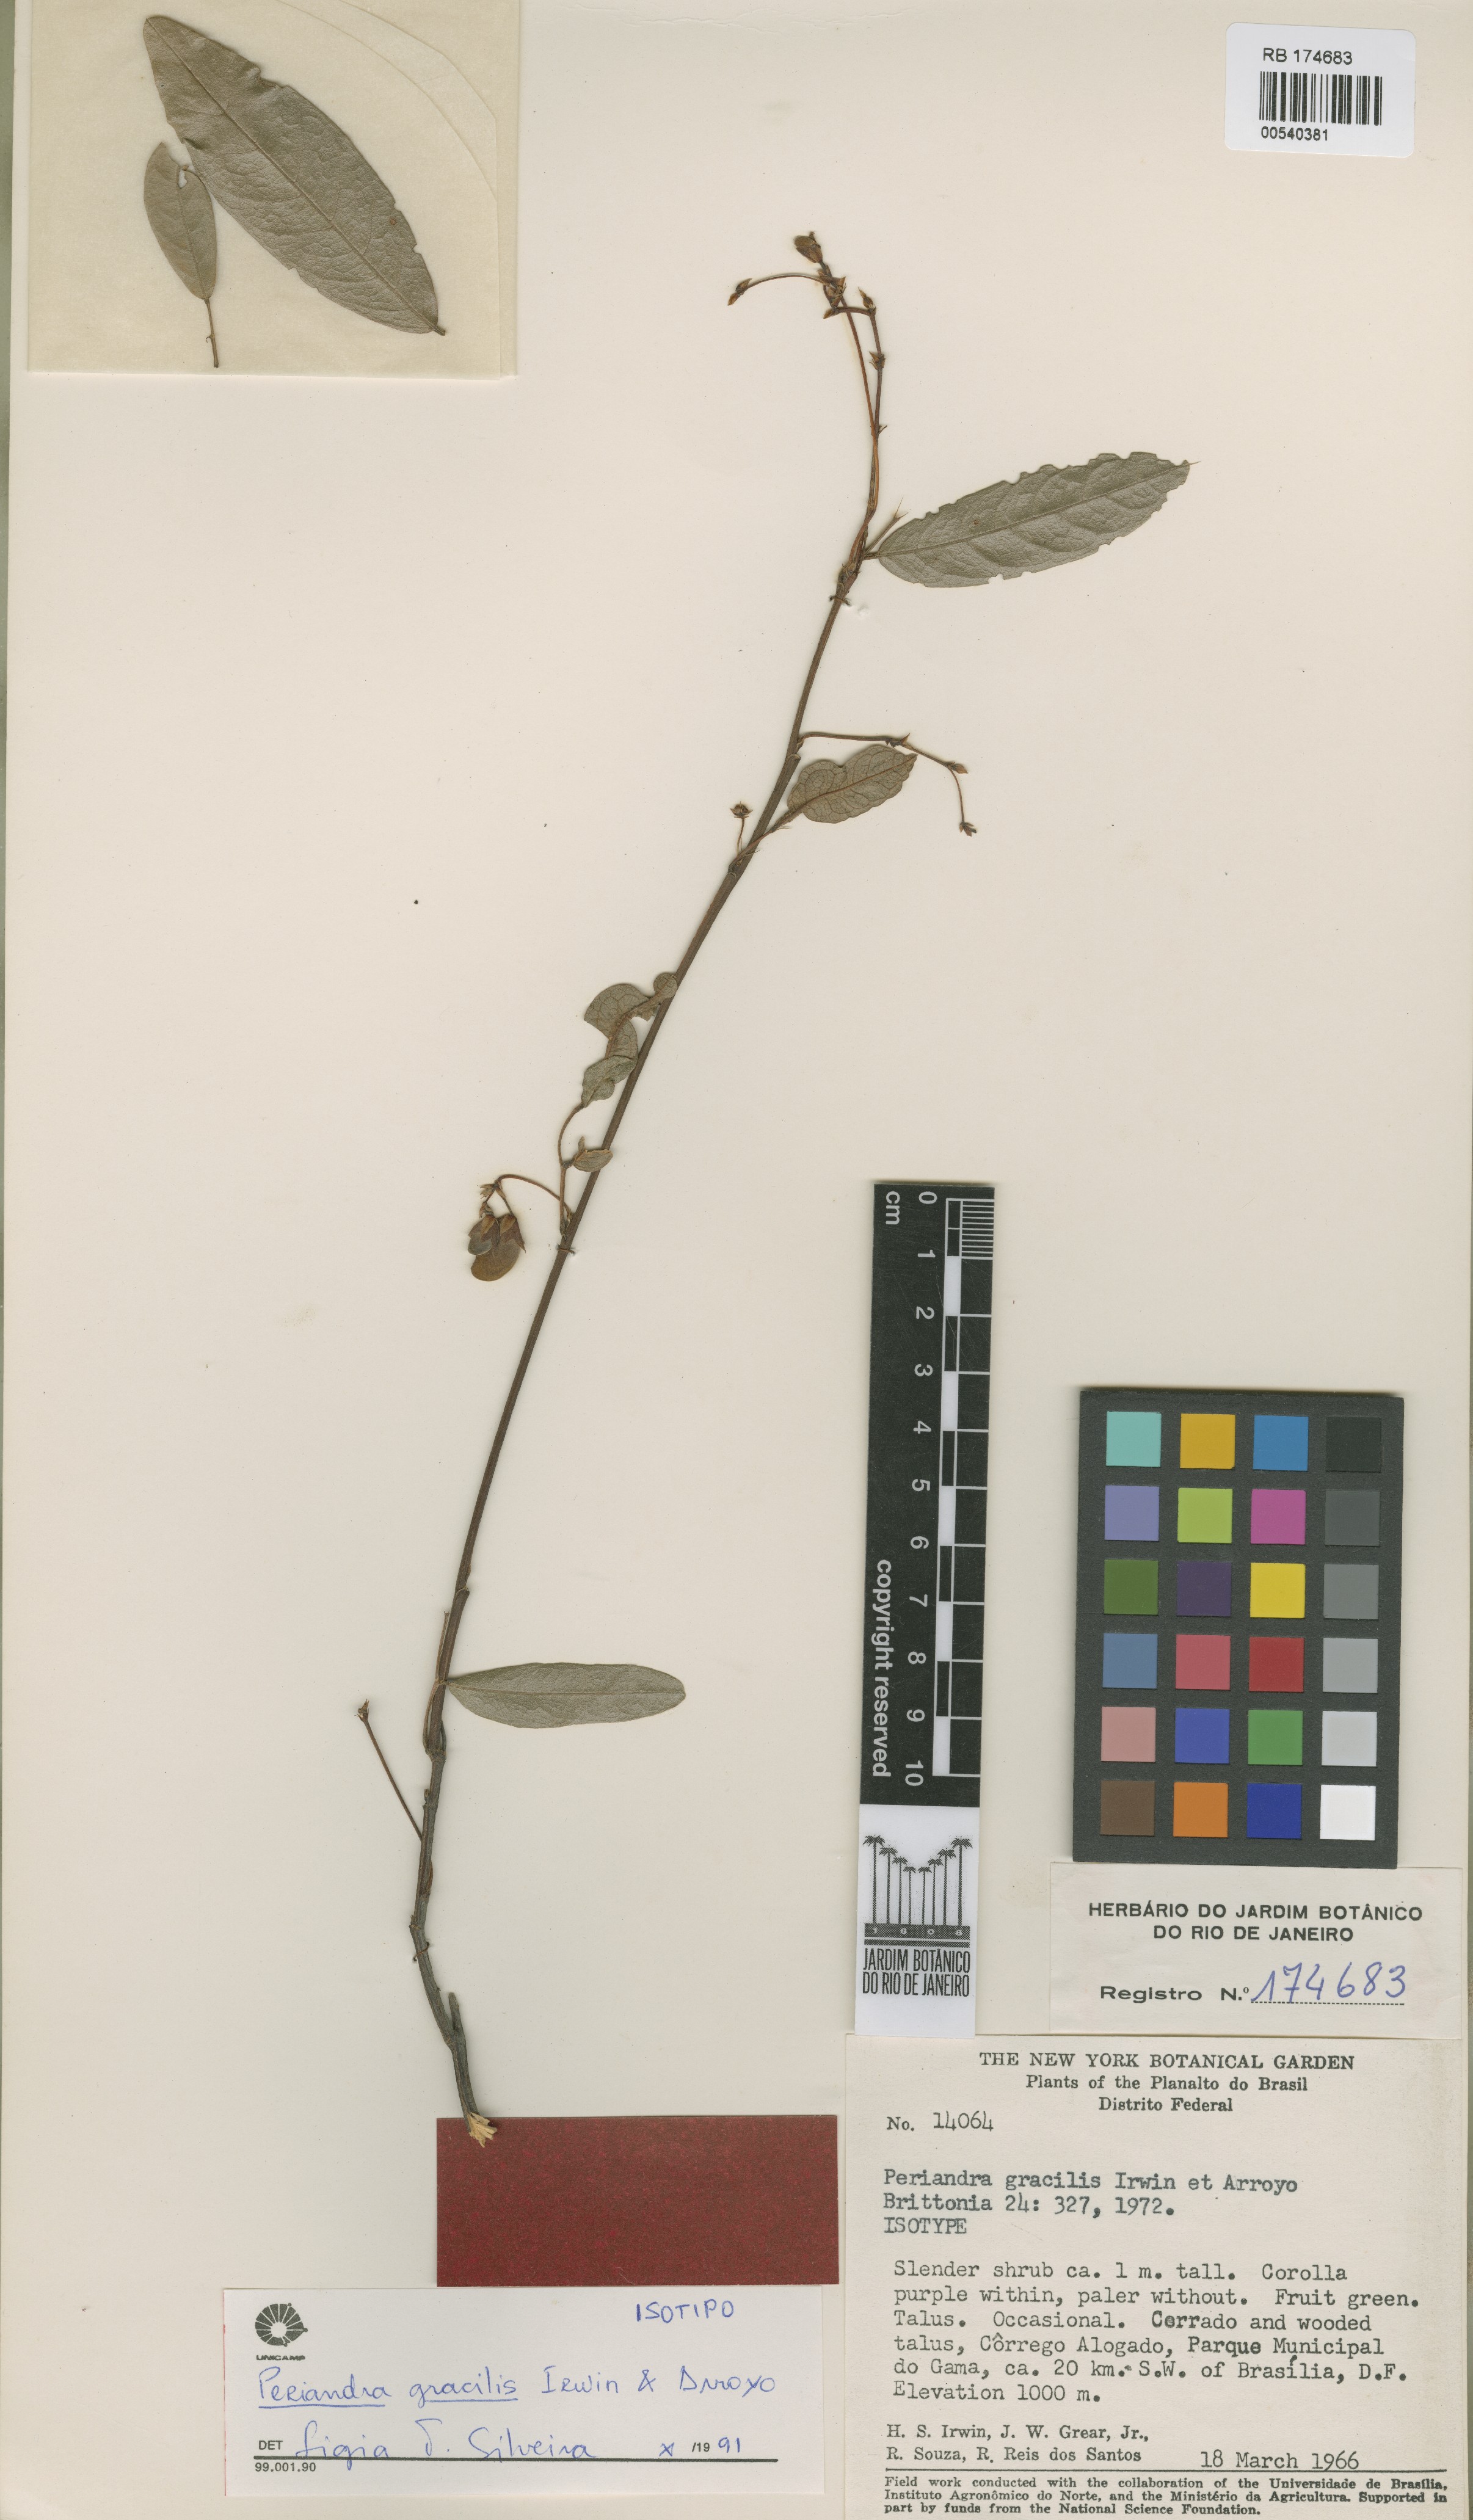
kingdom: Plantae
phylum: Tracheophyta
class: Magnoliopsida
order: Fabales
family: Fabaceae
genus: Periandra
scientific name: Periandra gracilis
